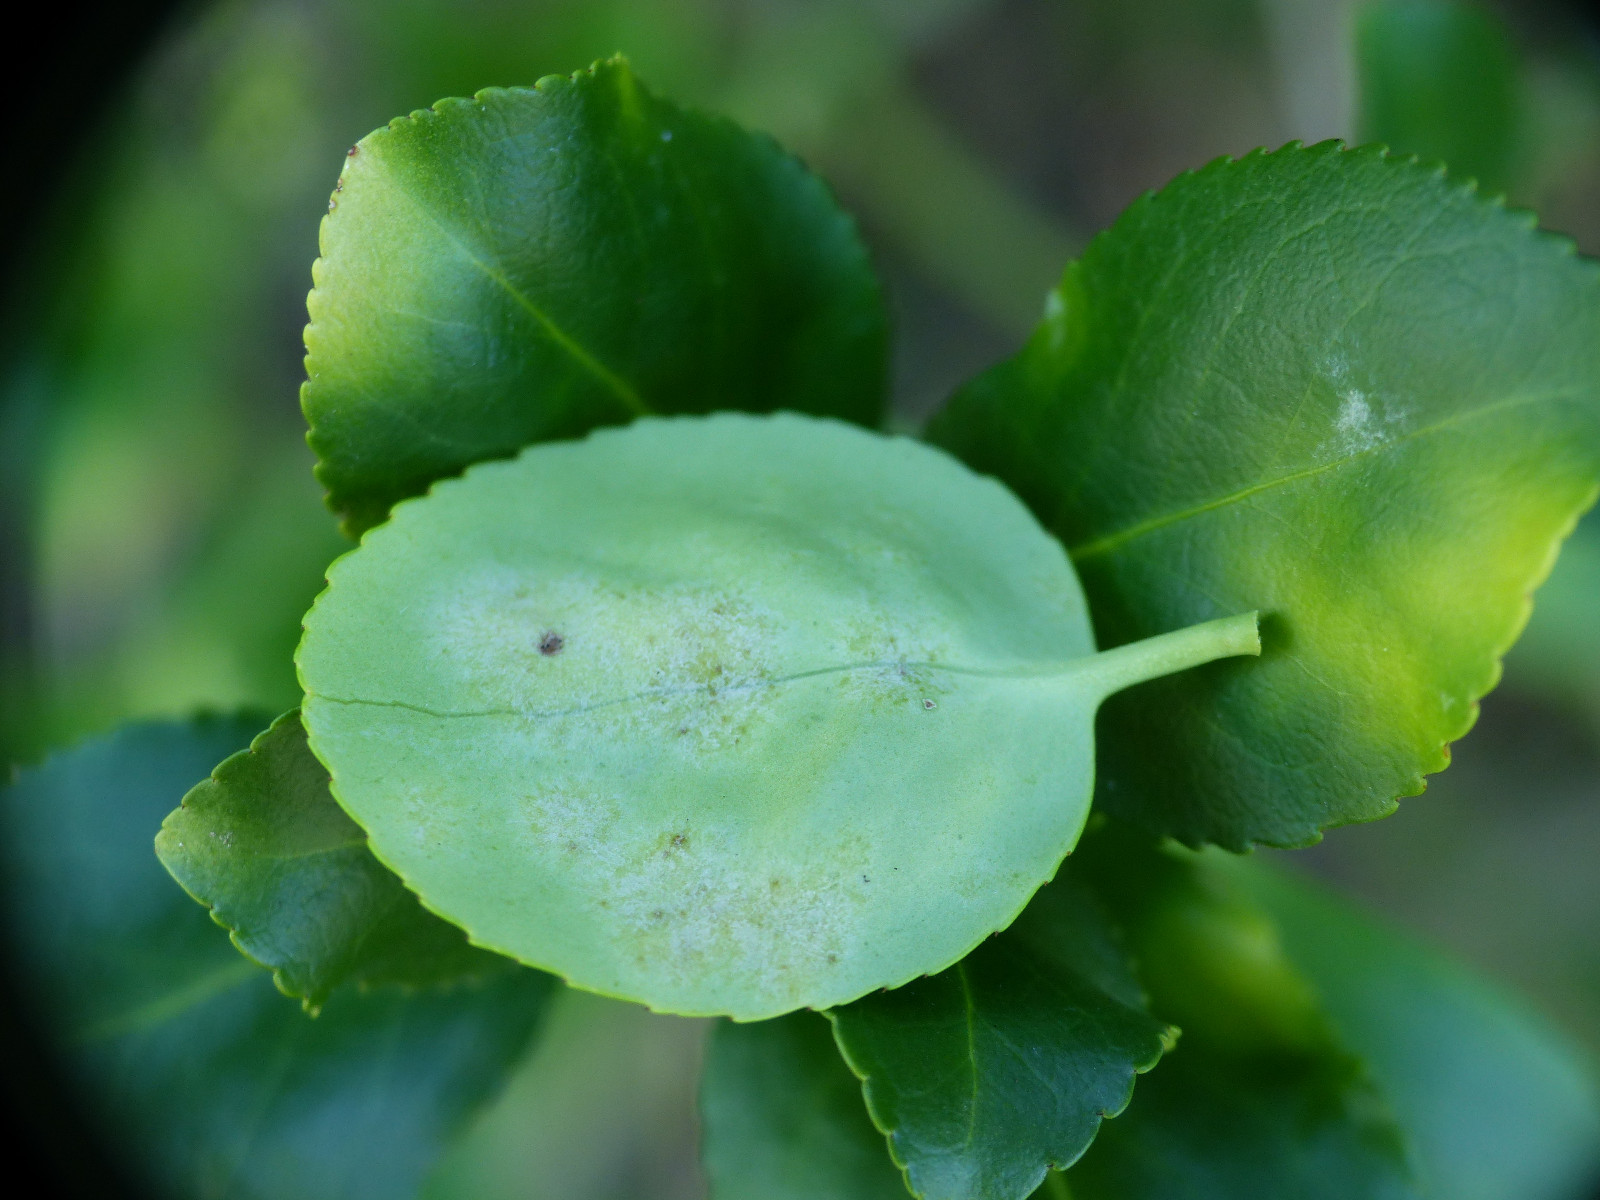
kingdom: Fungi
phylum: Ascomycota
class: Leotiomycetes
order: Helotiales
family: Erysiphaceae
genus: Erysiphe
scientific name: Erysiphe euonymicola
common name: Spindletree mildew
